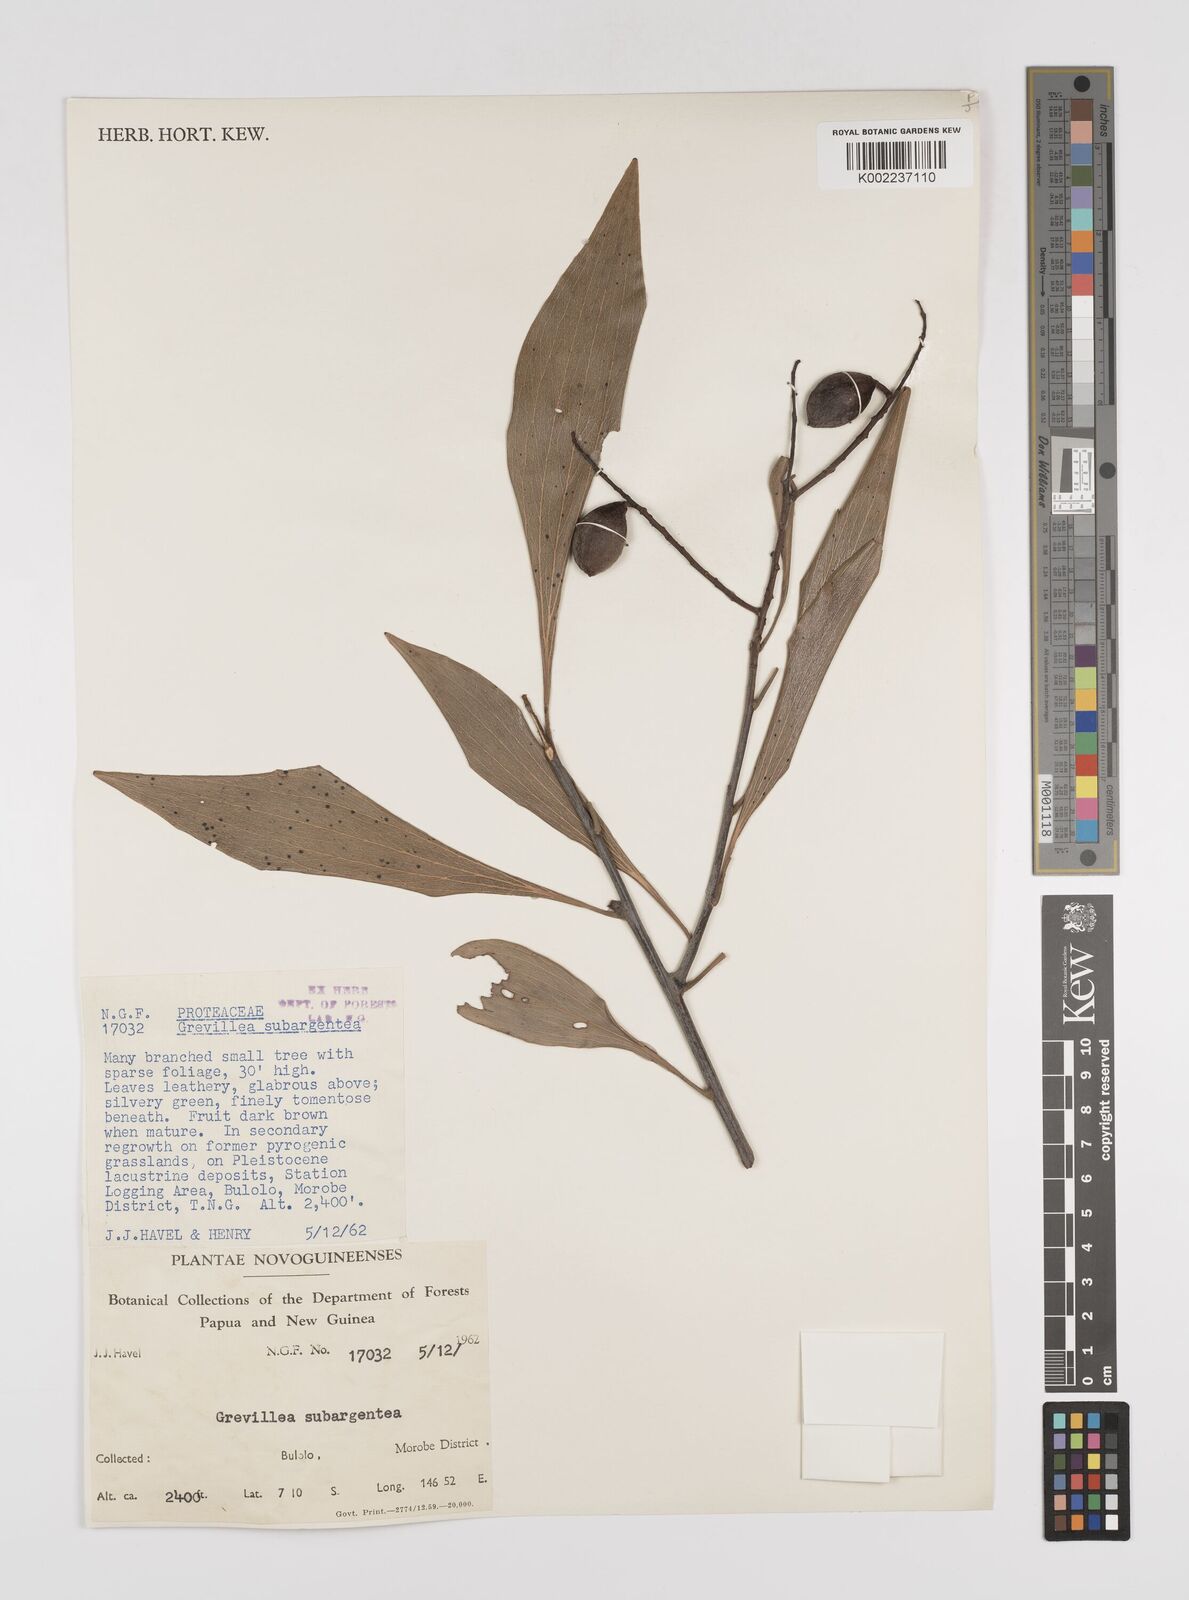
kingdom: Plantae
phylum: Tracheophyta
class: Magnoliopsida
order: Proteales
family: Proteaceae
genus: Grevillea
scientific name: Grevillea papuana
